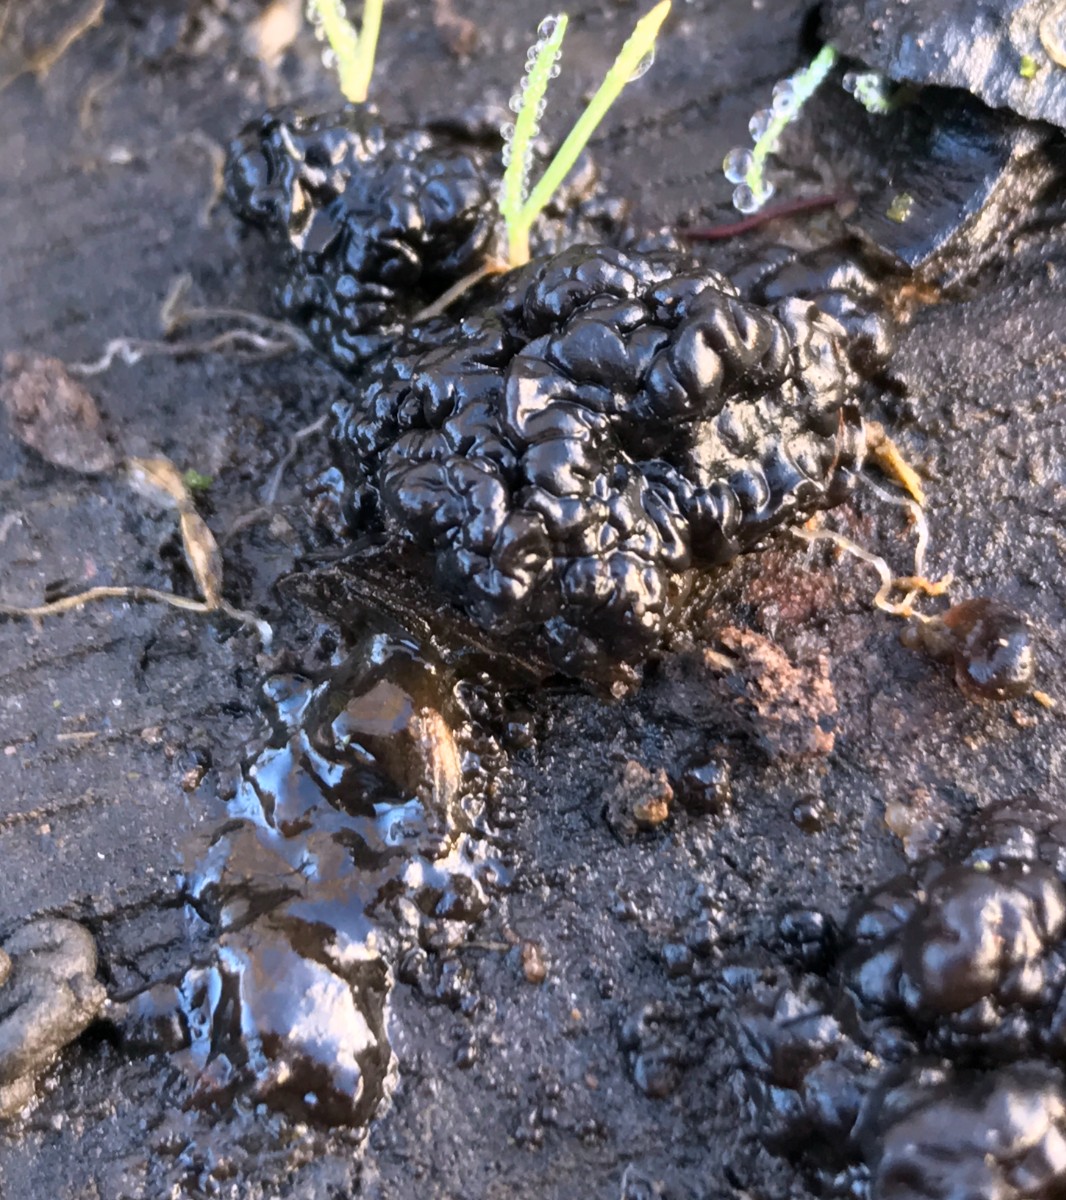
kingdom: Fungi
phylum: Basidiomycota
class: Agaricomycetes
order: Auriculariales
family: Auriculariaceae
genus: Exidia
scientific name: Exidia nigricans
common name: almindelig bævretop
